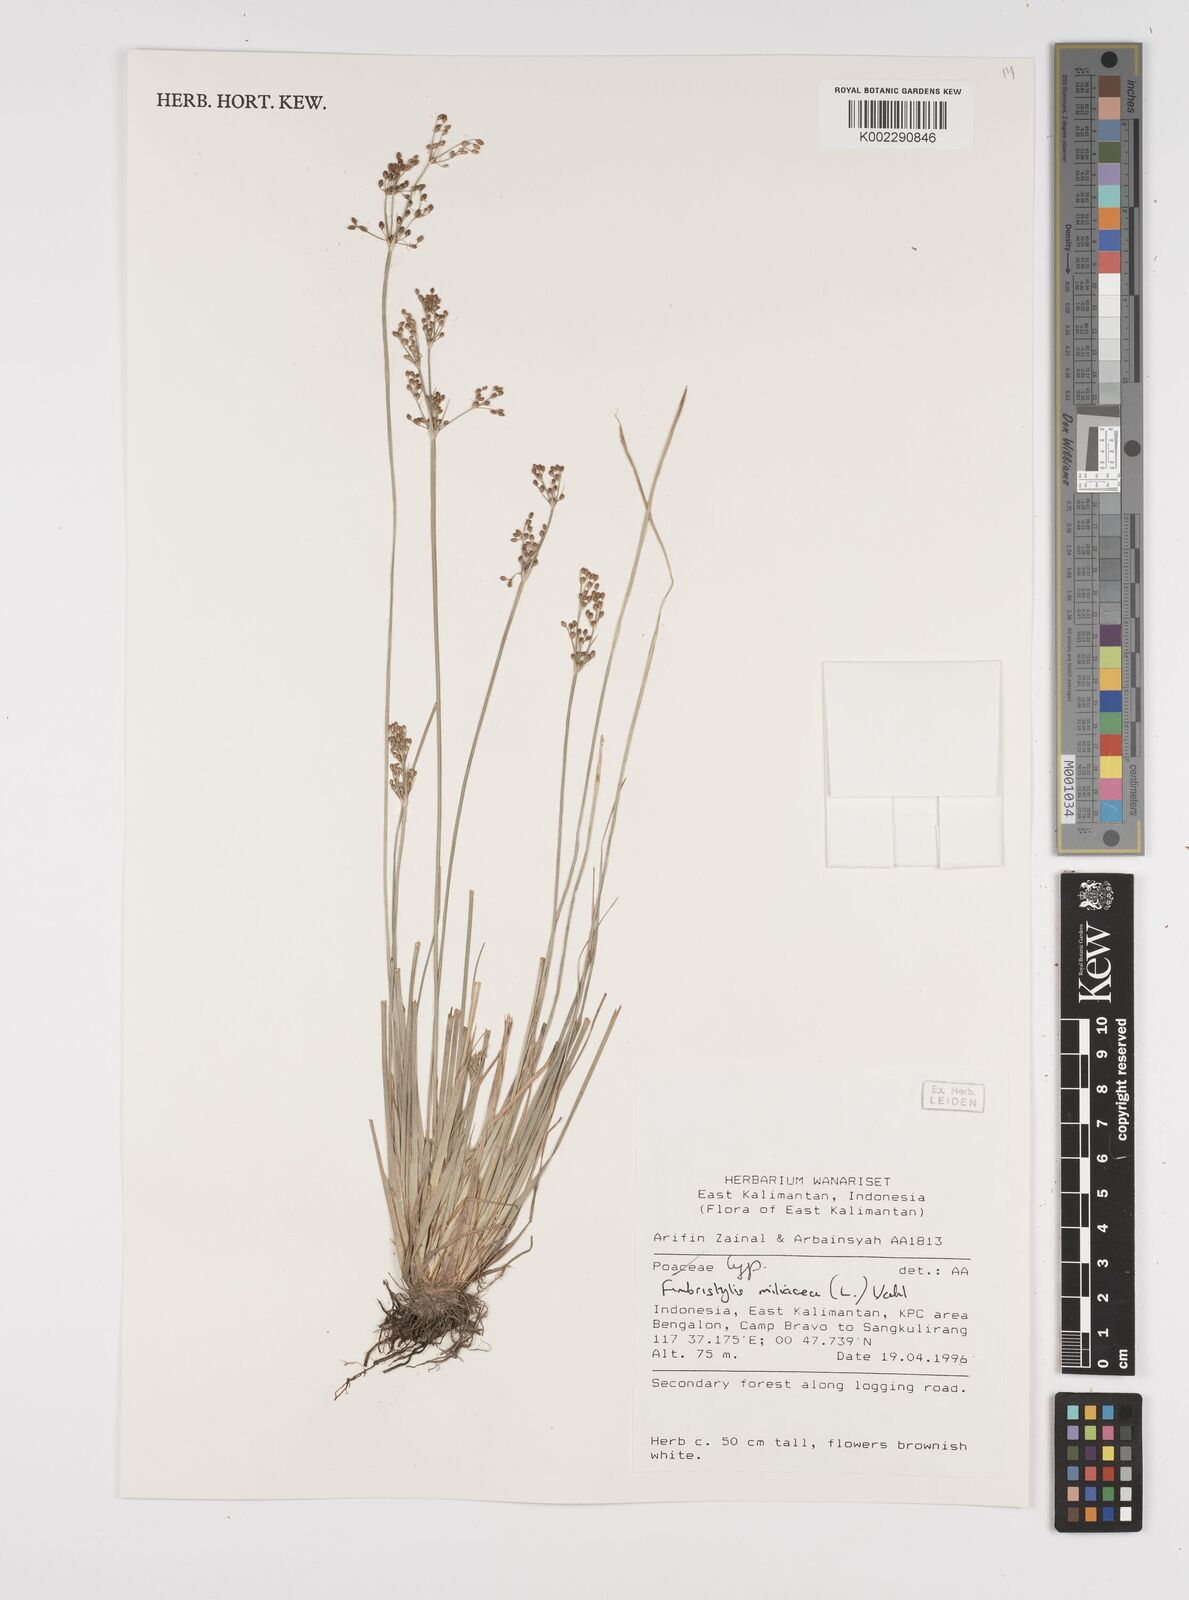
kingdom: Plantae
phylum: Tracheophyta
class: Liliopsida
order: Poales
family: Cyperaceae
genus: Fimbristylis
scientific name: Fimbristylis littoralis
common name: Fimbry
